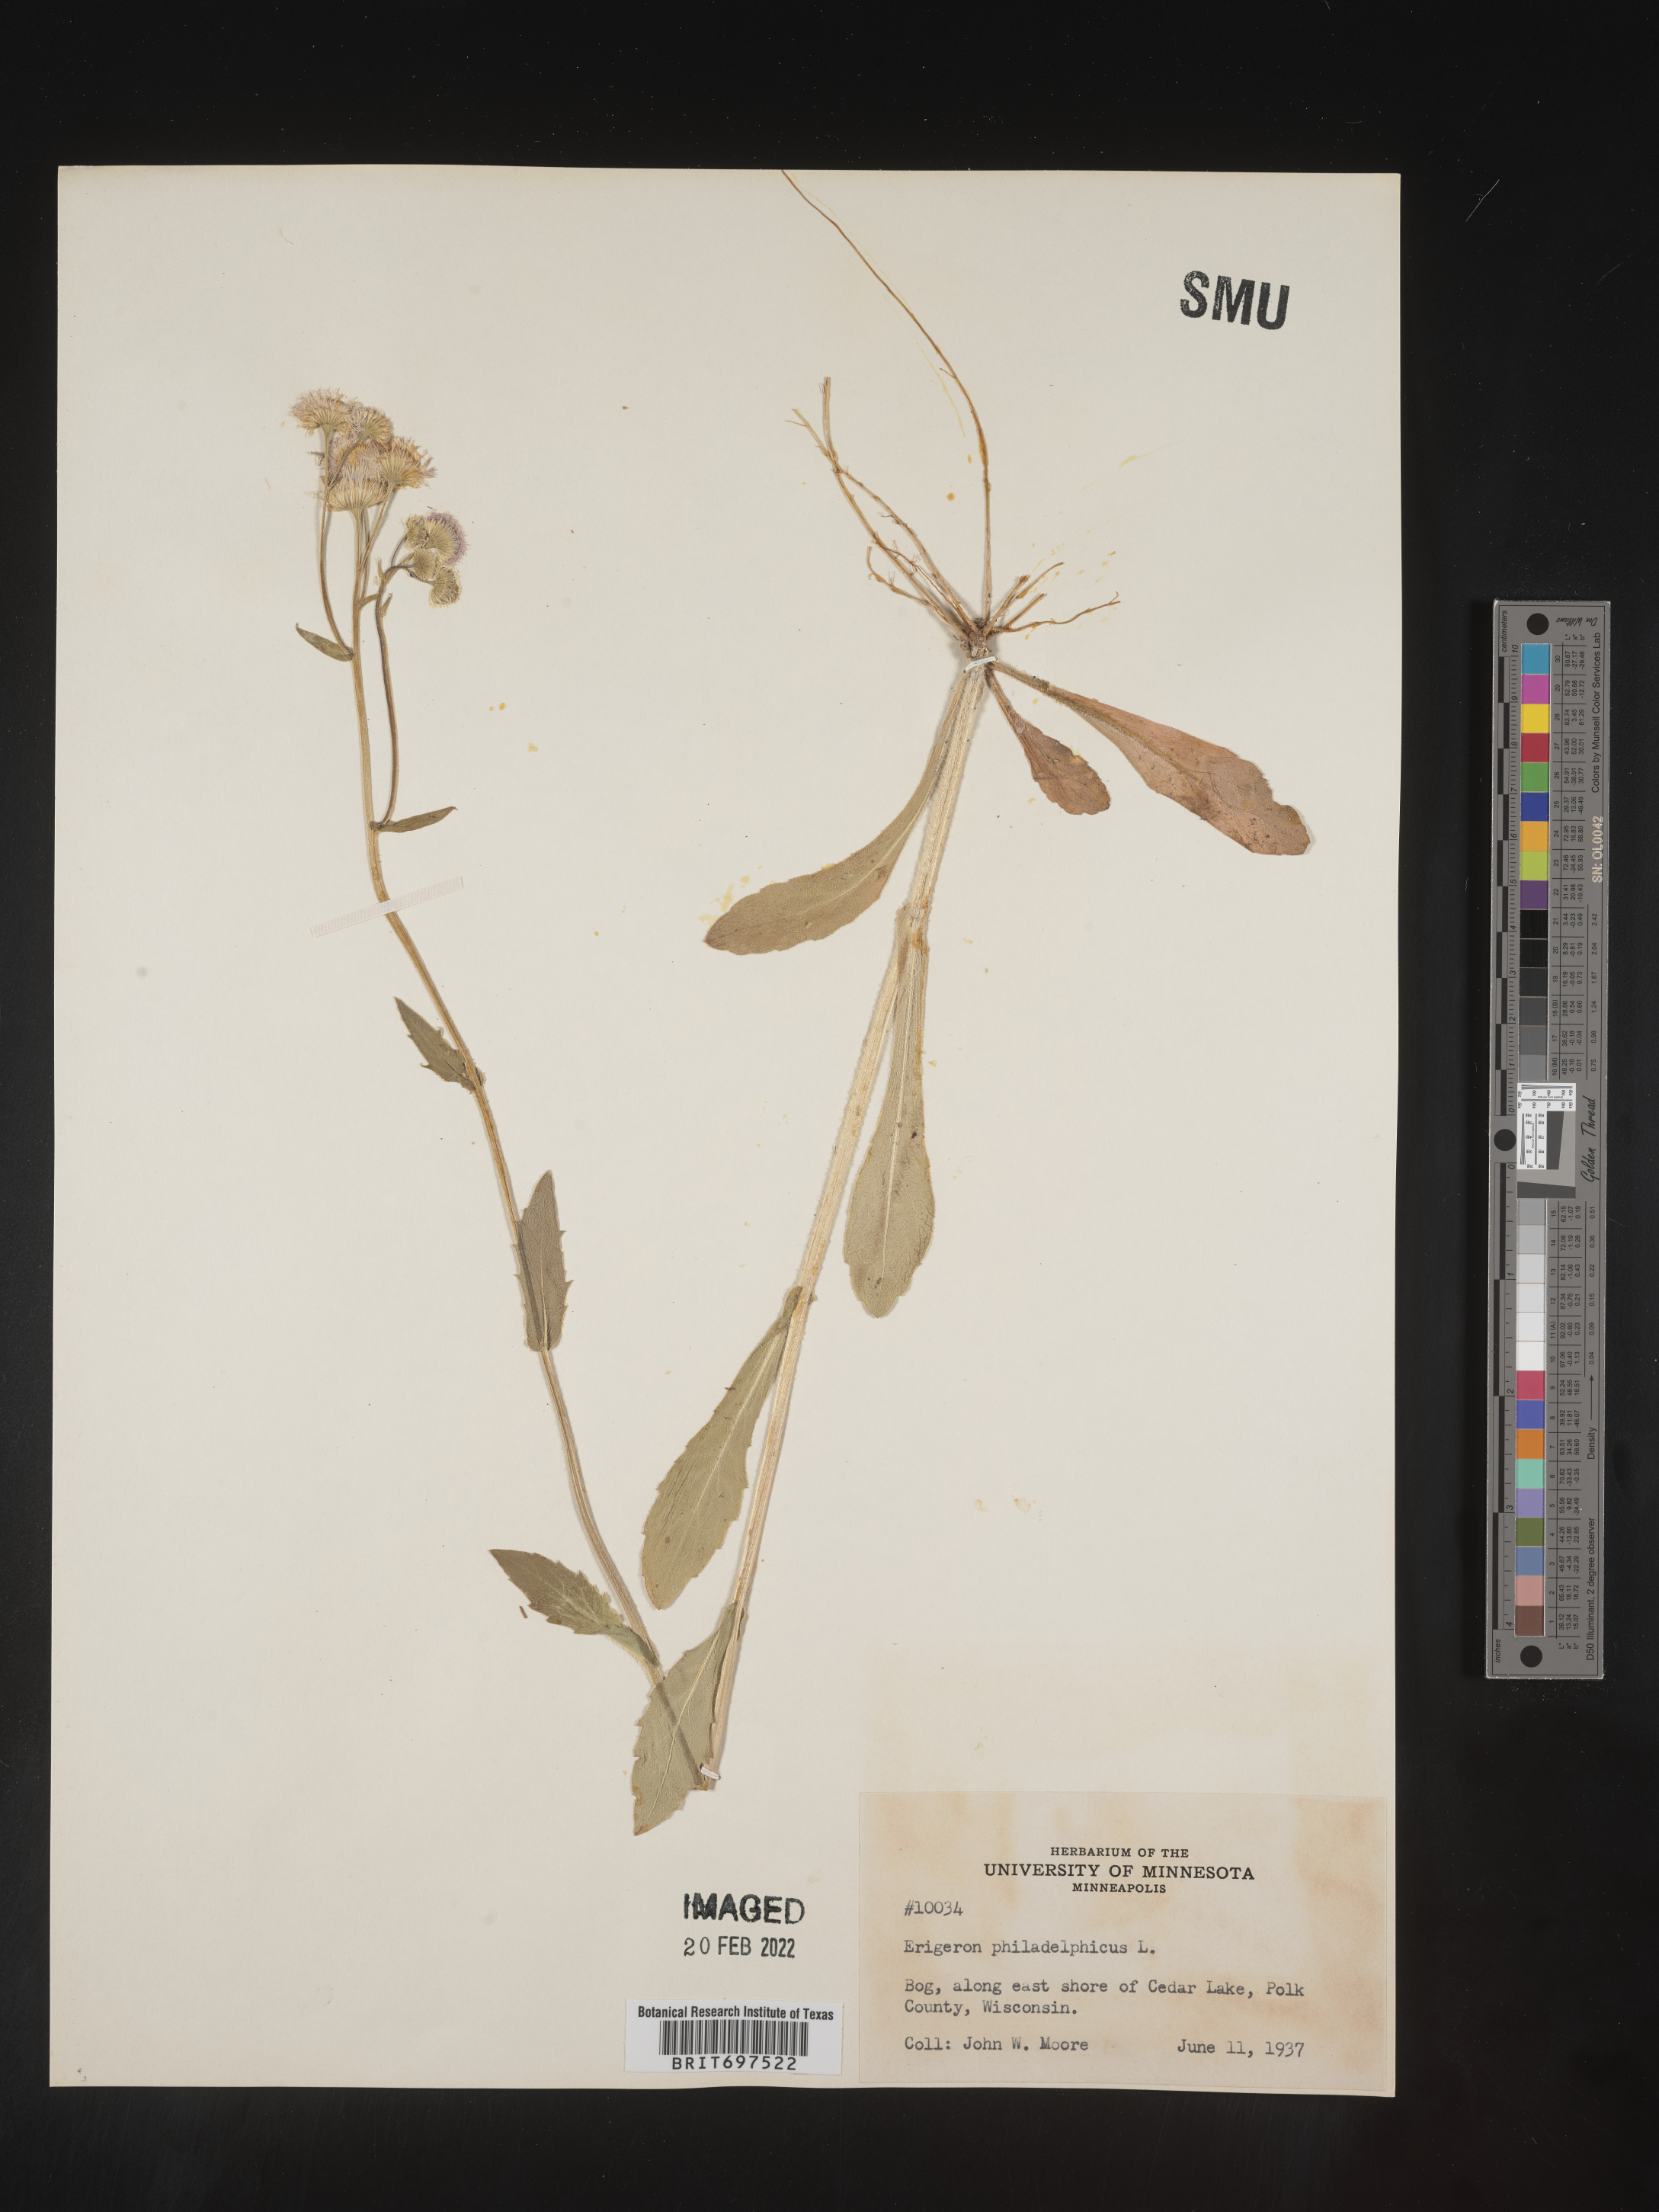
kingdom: Plantae
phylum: Tracheophyta
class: Magnoliopsida
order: Asterales
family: Asteraceae
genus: Erigeron
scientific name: Erigeron philadelphicus
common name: Robin's-plantain
